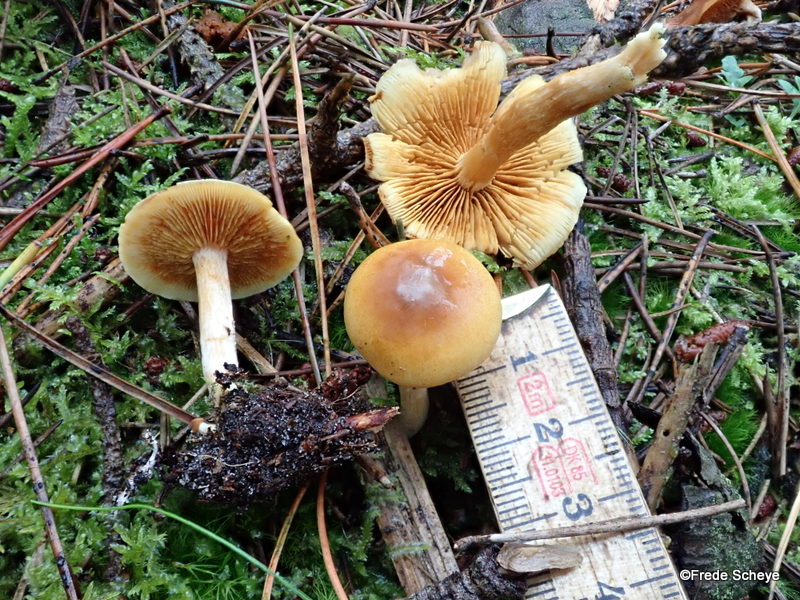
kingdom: Fungi
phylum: Basidiomycota
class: Agaricomycetes
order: Agaricales
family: Hymenogastraceae
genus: Gymnopilus
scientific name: Gymnopilus penetrans
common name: plettet flammehat
